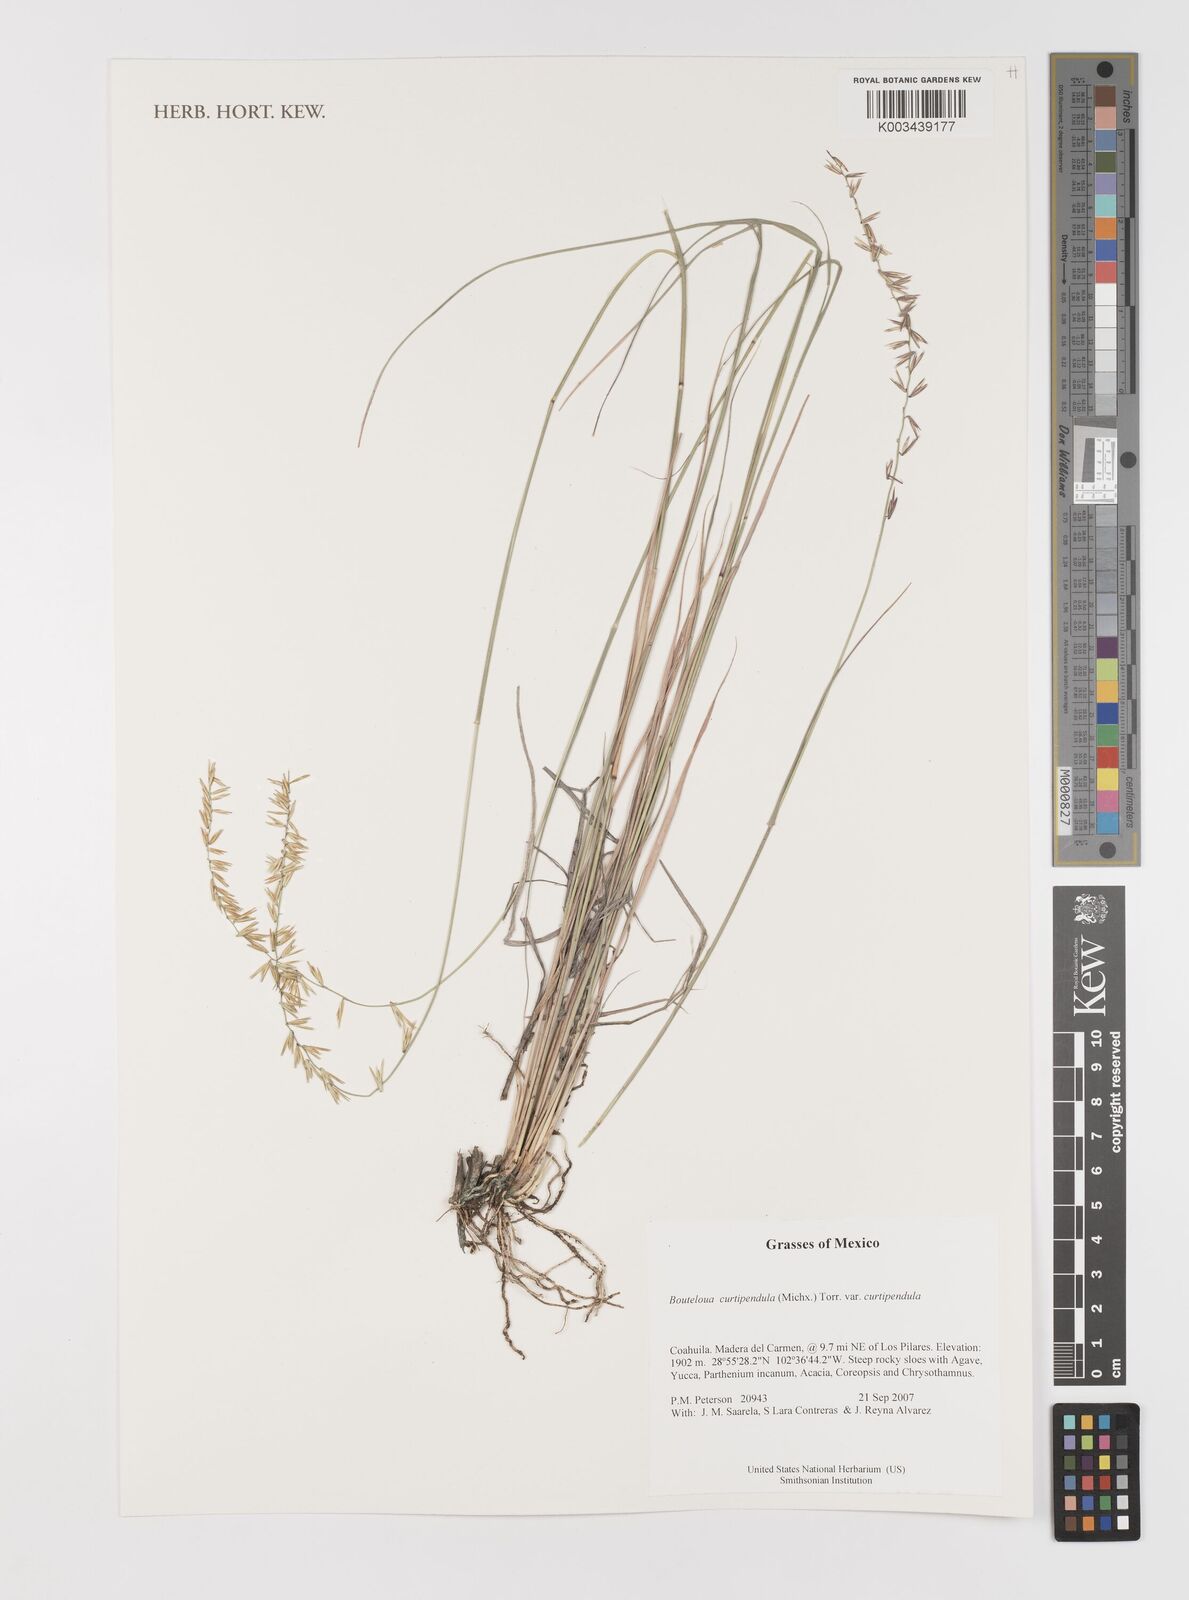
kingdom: Plantae
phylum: Tracheophyta
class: Liliopsida
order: Poales
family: Poaceae
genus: Bouteloua
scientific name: Bouteloua curtipendula
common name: Side-oats grama
